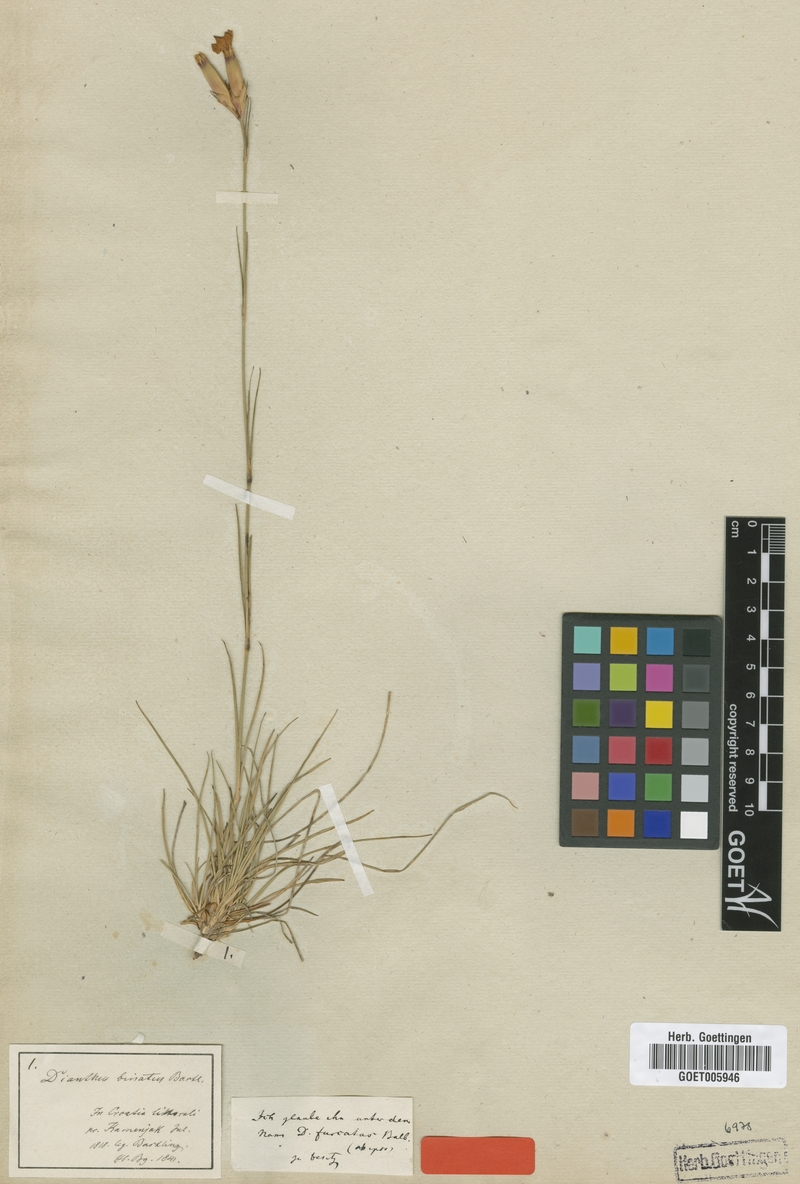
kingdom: Plantae
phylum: Tracheophyta
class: Magnoliopsida
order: Caryophyllales
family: Caryophyllaceae
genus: Dianthus
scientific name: Dianthus biflorus
